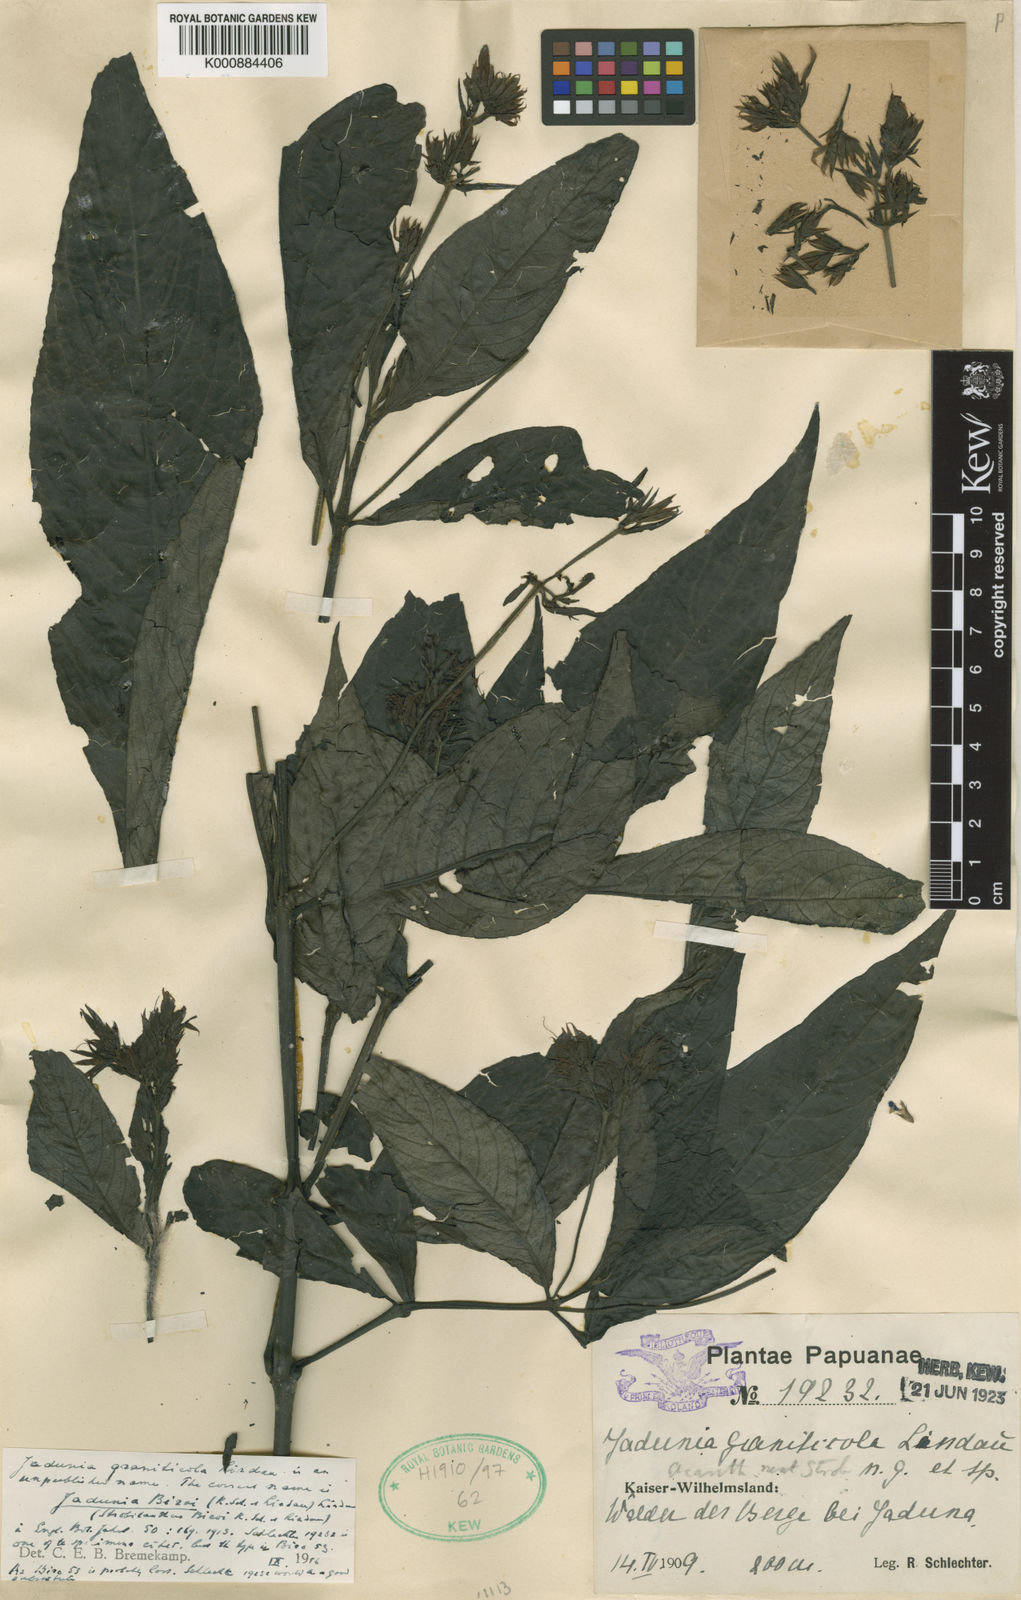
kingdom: Plantae
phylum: Tracheophyta
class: Magnoliopsida
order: Lamiales
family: Acanthaceae
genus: Jadunia
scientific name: Jadunia biroi
